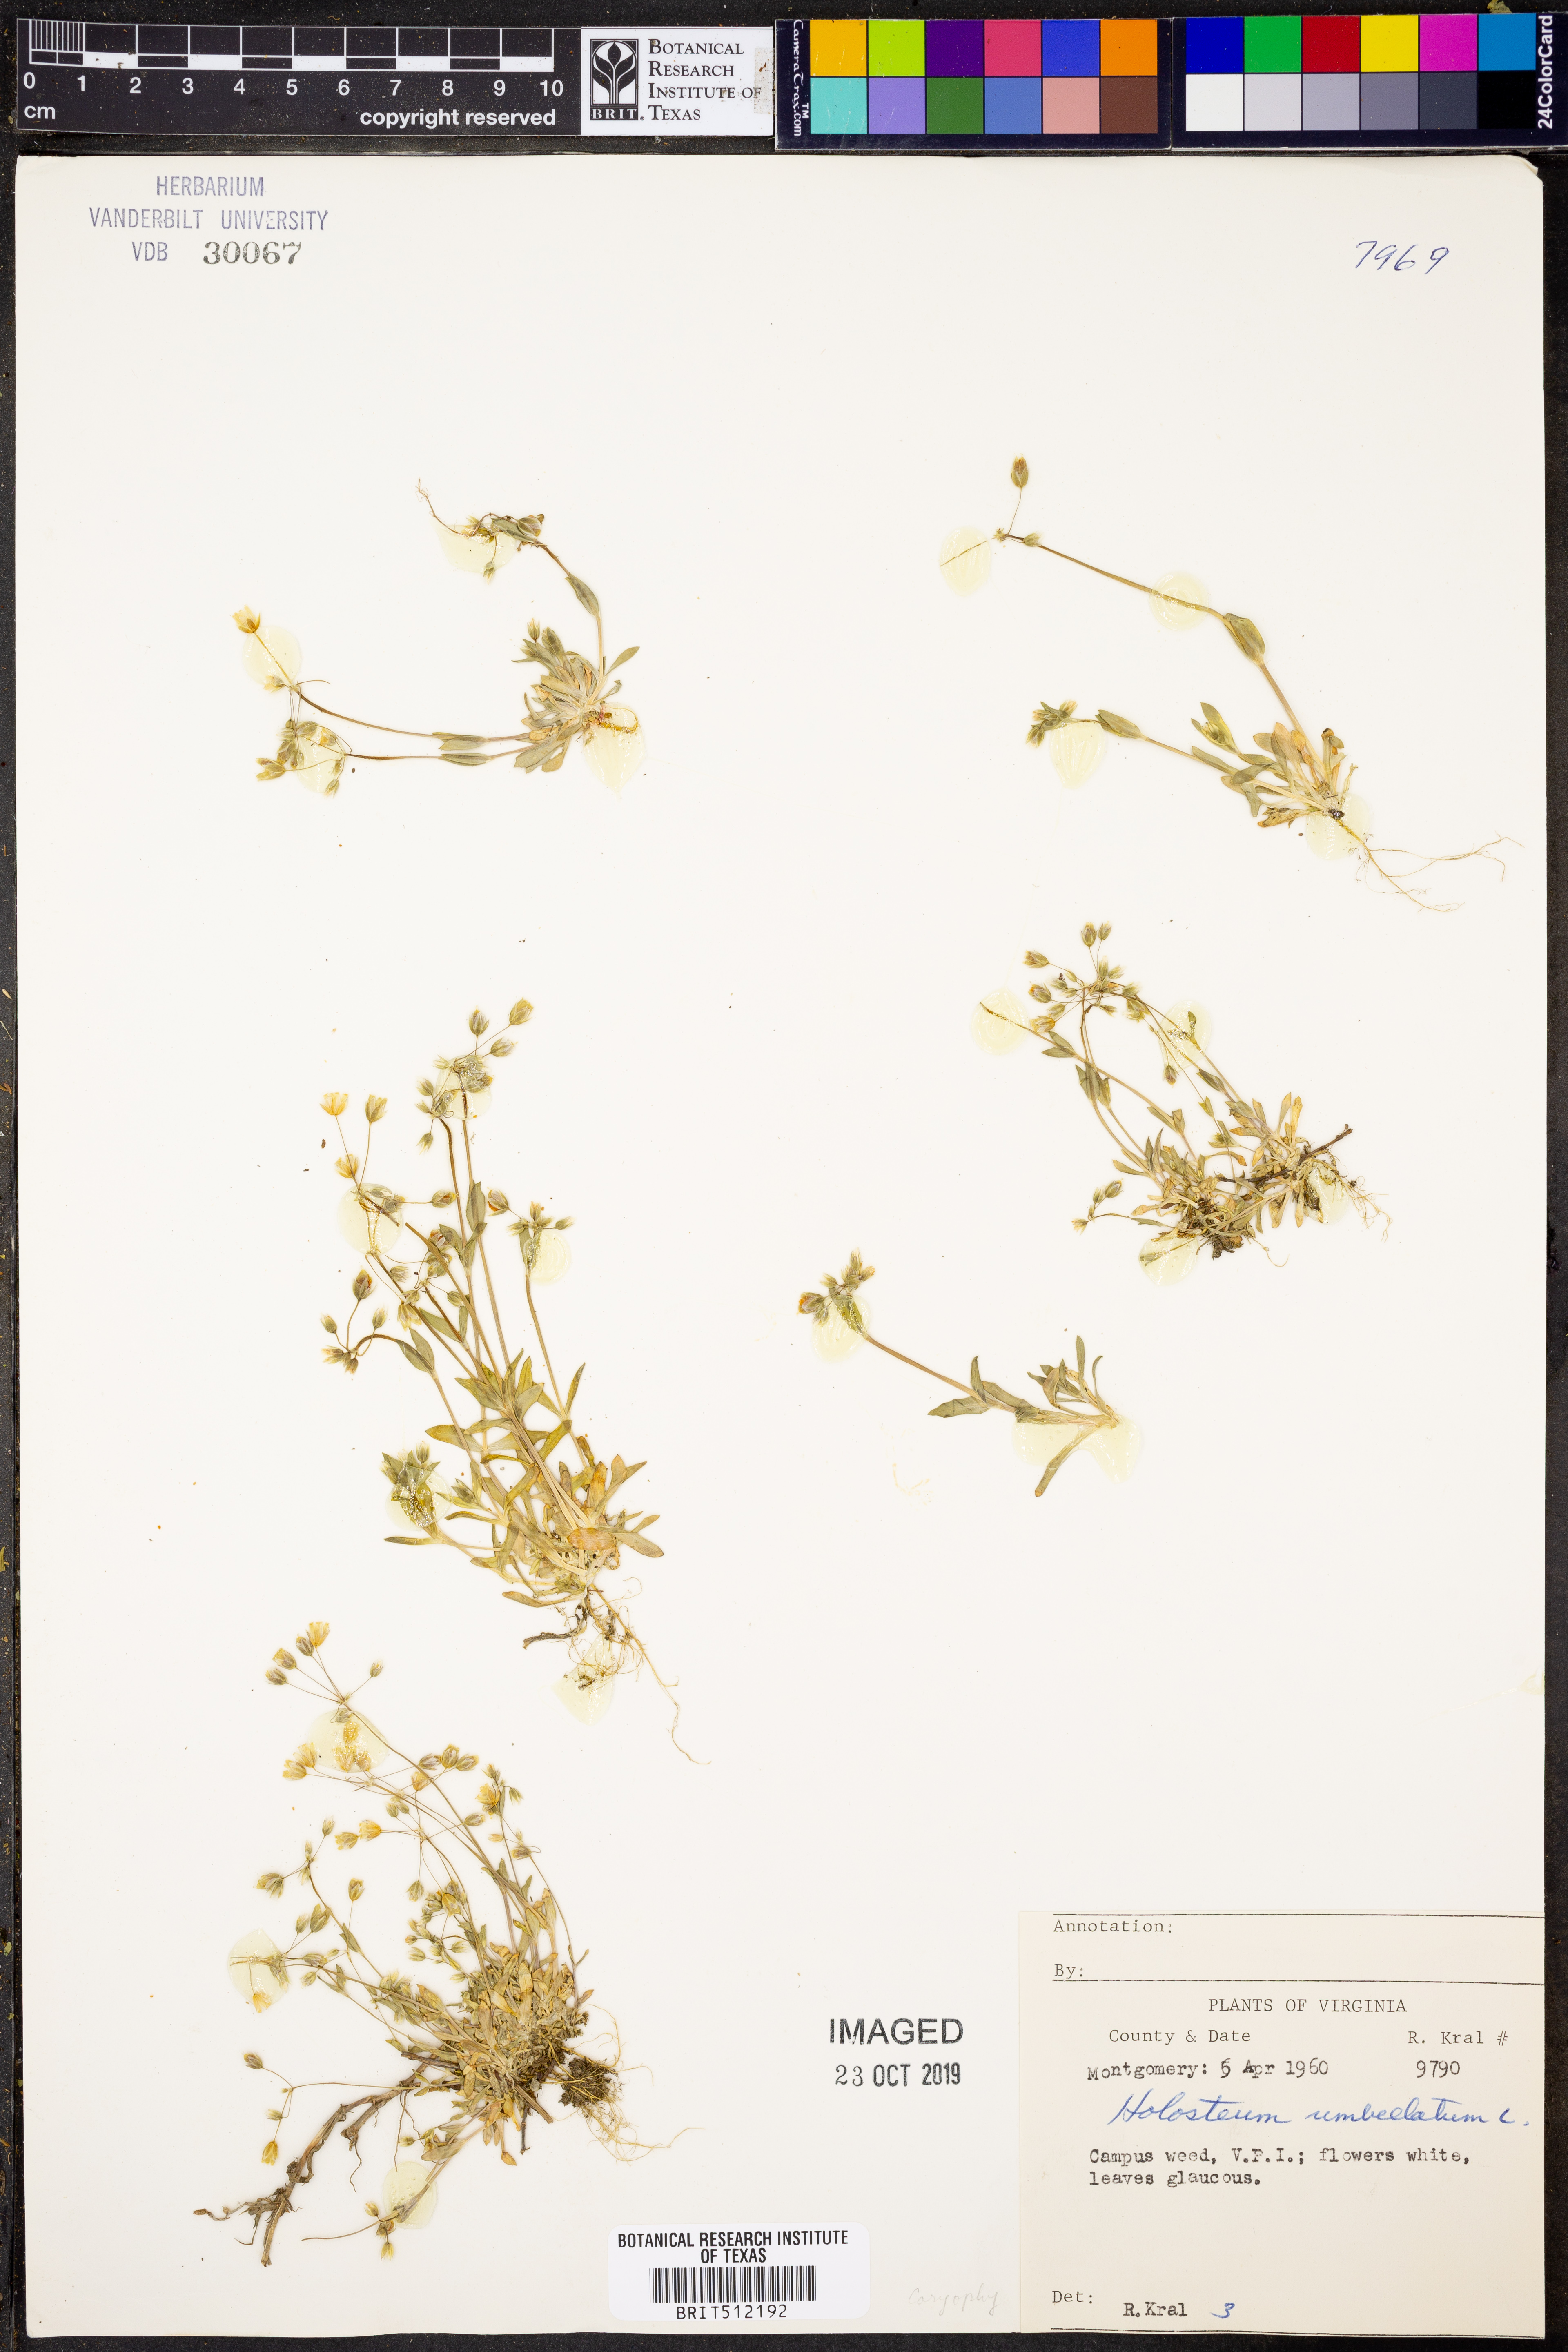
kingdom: Plantae
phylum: Tracheophyta
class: Magnoliopsida
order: Caryophyllales
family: Caryophyllaceae
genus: Holosteum
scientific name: Holosteum umbellatum
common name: Jagged chickweed
